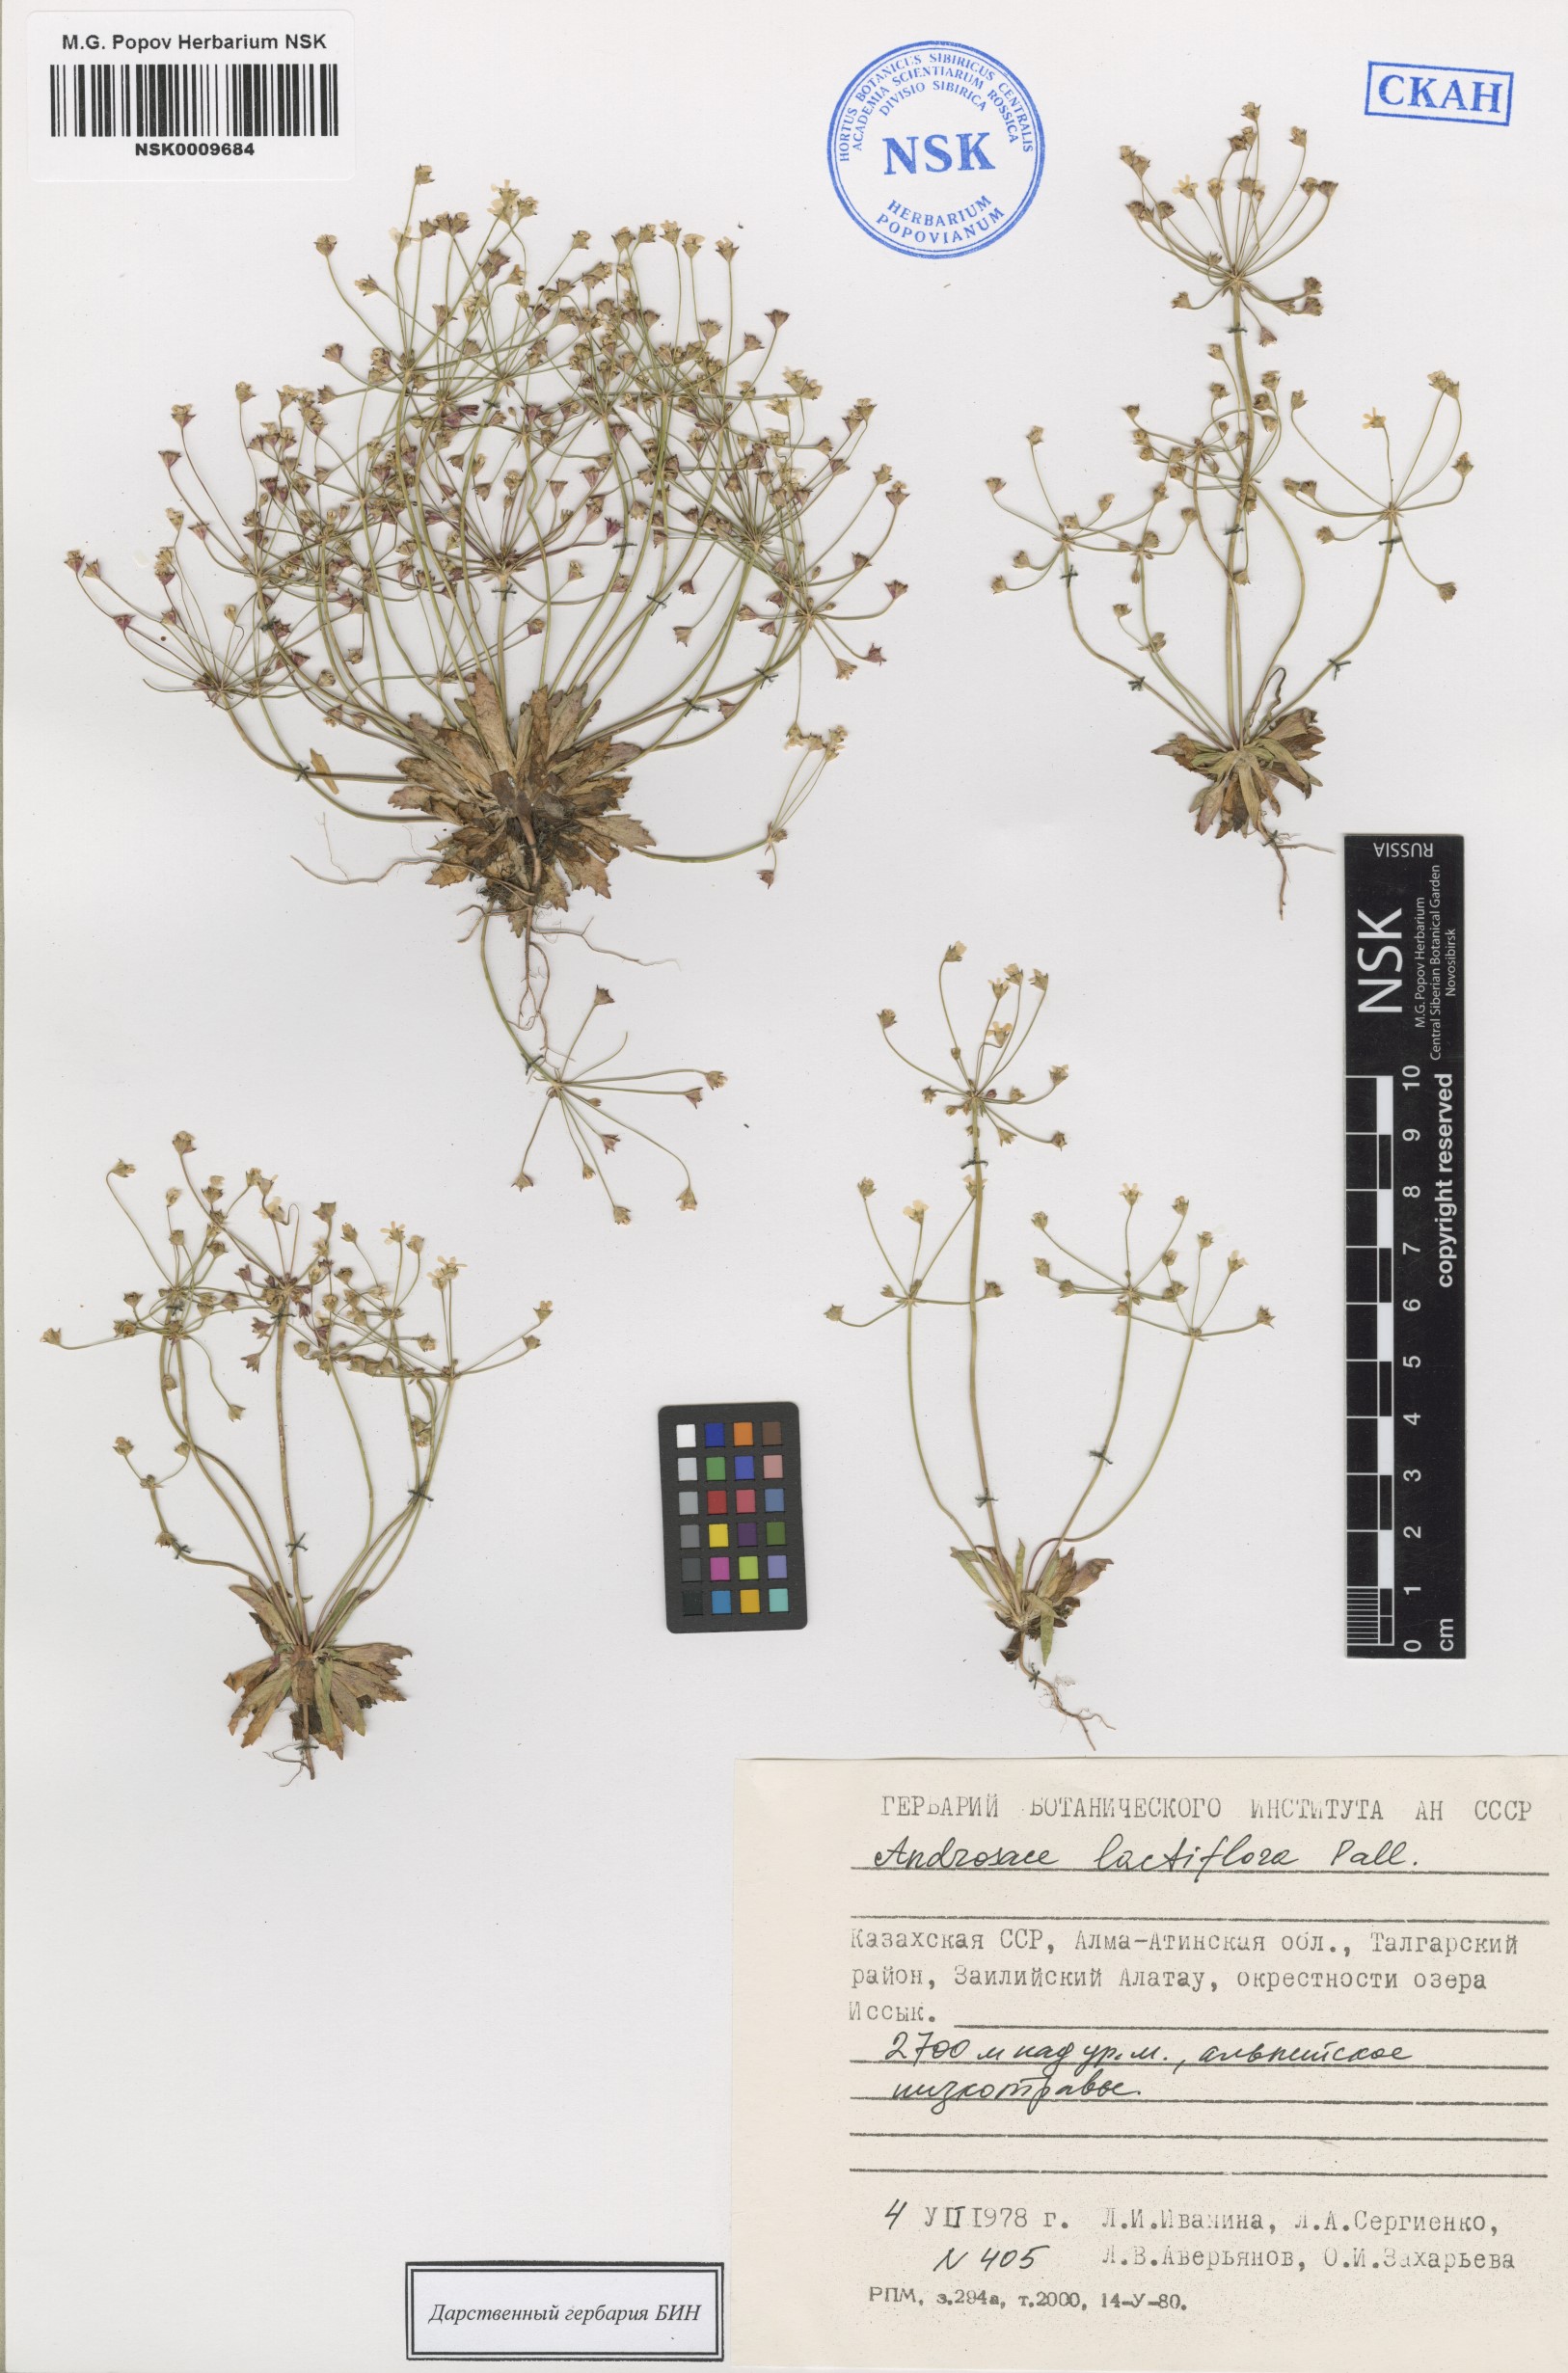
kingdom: Plantae
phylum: Tracheophyta
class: Magnoliopsida
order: Ericales
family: Primulaceae
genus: Androsace
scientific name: Androsace lactiflora
